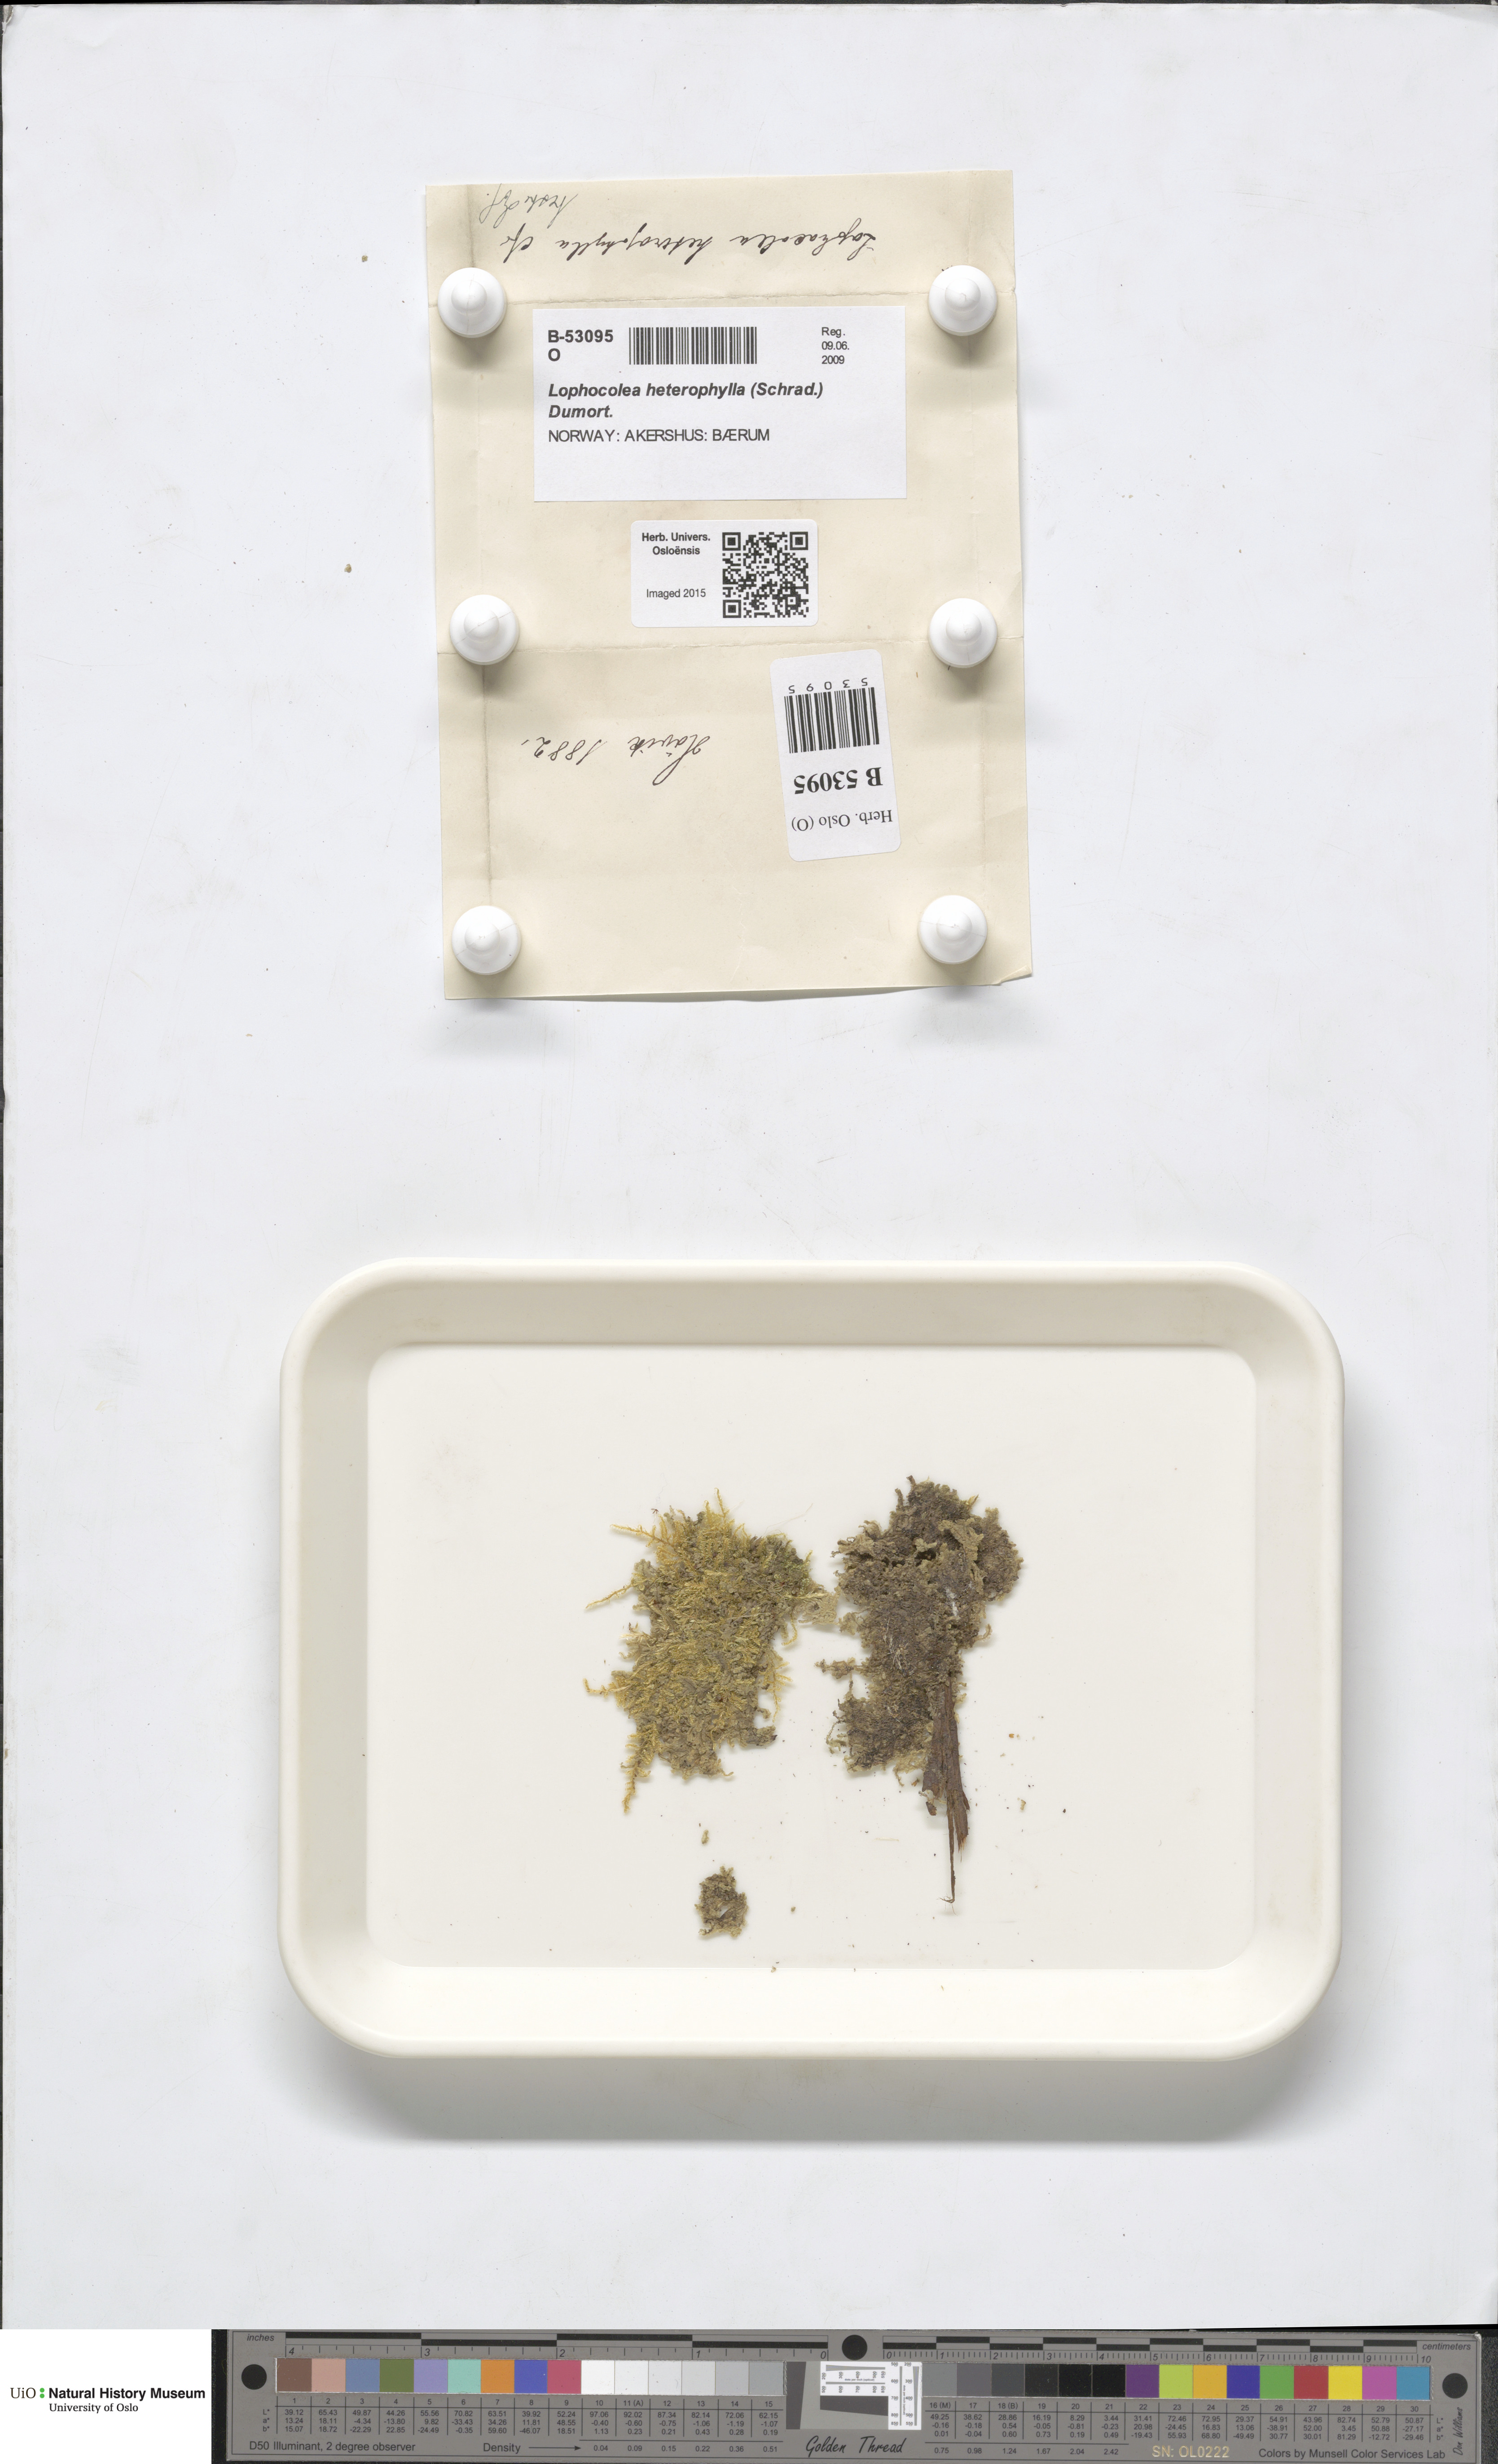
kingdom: Plantae
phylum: Marchantiophyta
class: Jungermanniopsida
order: Jungermanniales
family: Lophocoleaceae
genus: Lophocolea
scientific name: Lophocolea heterophylla
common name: Variable-leaved crestwort
